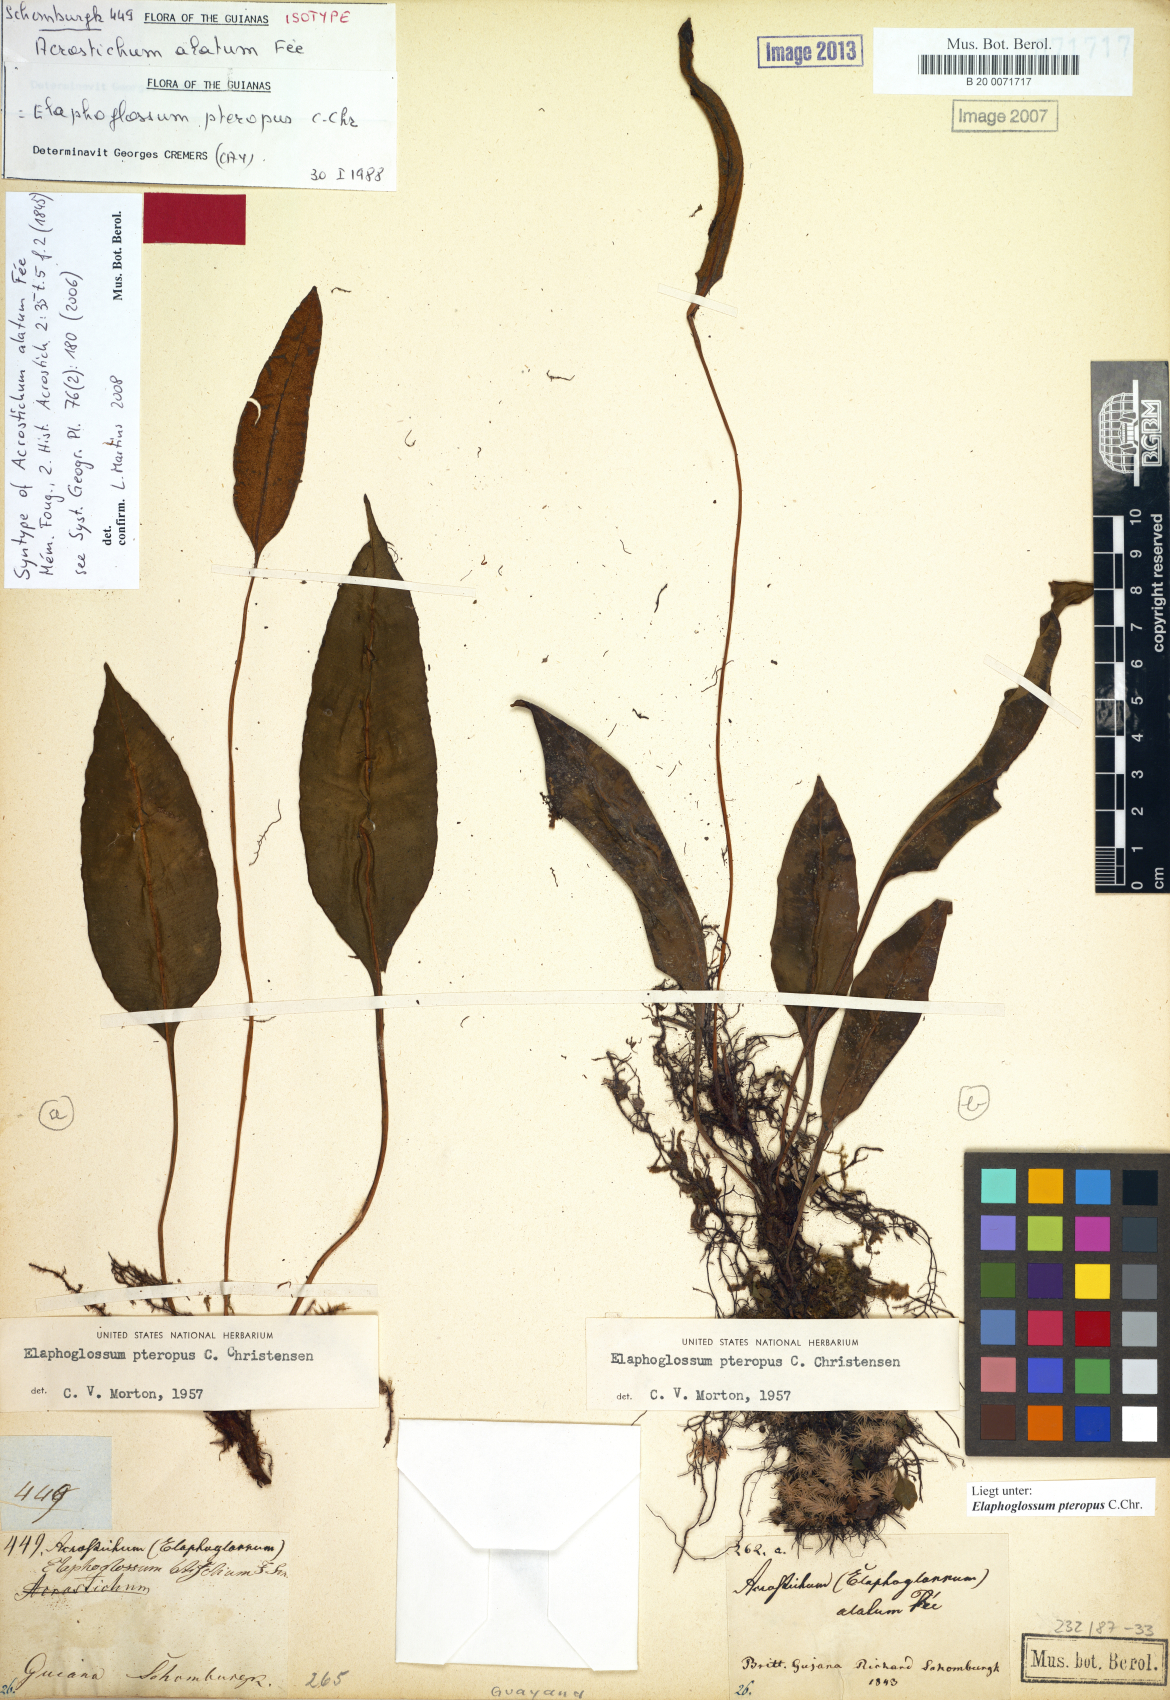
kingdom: Plantae
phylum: Tracheophyta
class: Polypodiopsida
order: Polypodiales
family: Dryopteridaceae
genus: Elaphoglossum
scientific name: Elaphoglossum pteropus
